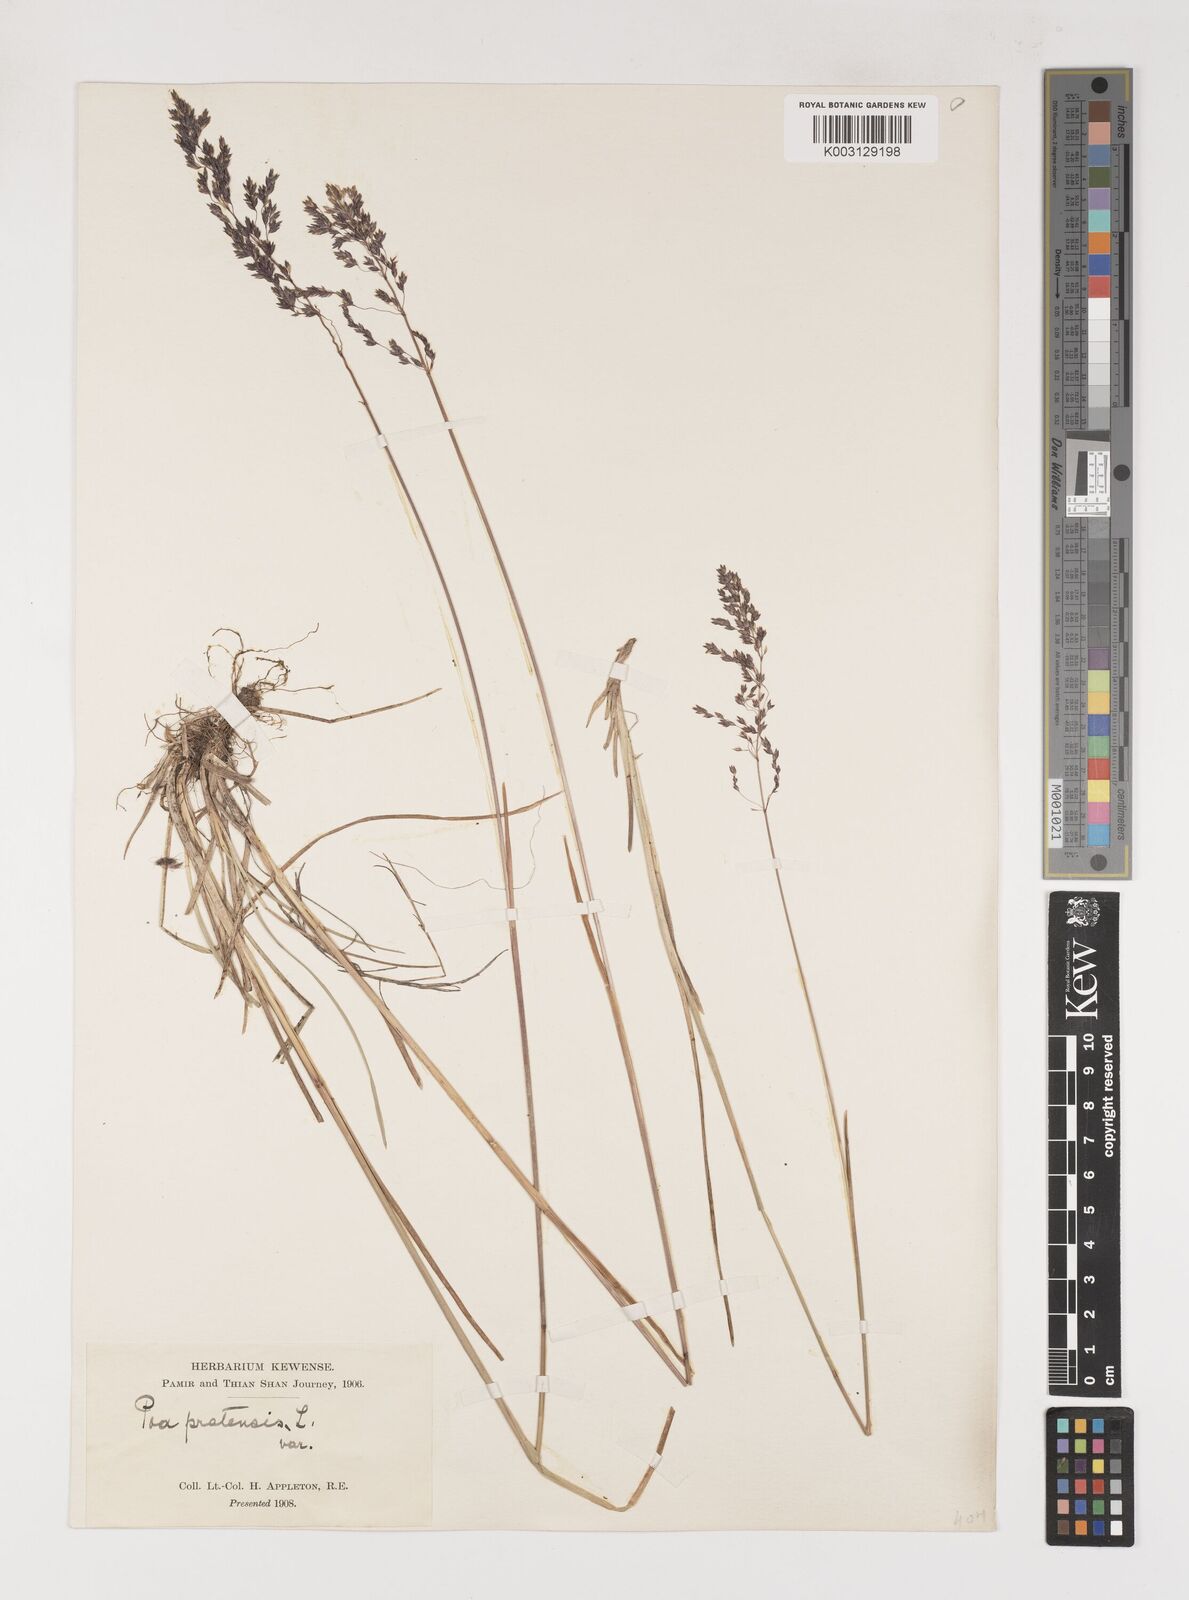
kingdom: Plantae
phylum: Tracheophyta
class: Liliopsida
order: Poales
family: Poaceae
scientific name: Poaceae
